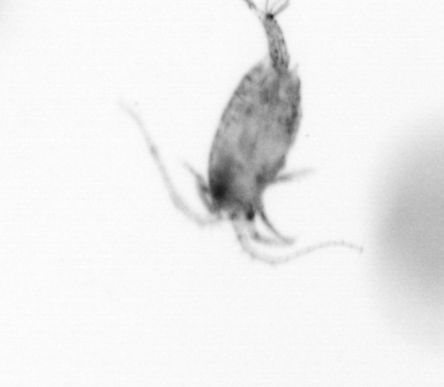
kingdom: Animalia
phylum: Arthropoda
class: Copepoda
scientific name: Copepoda
